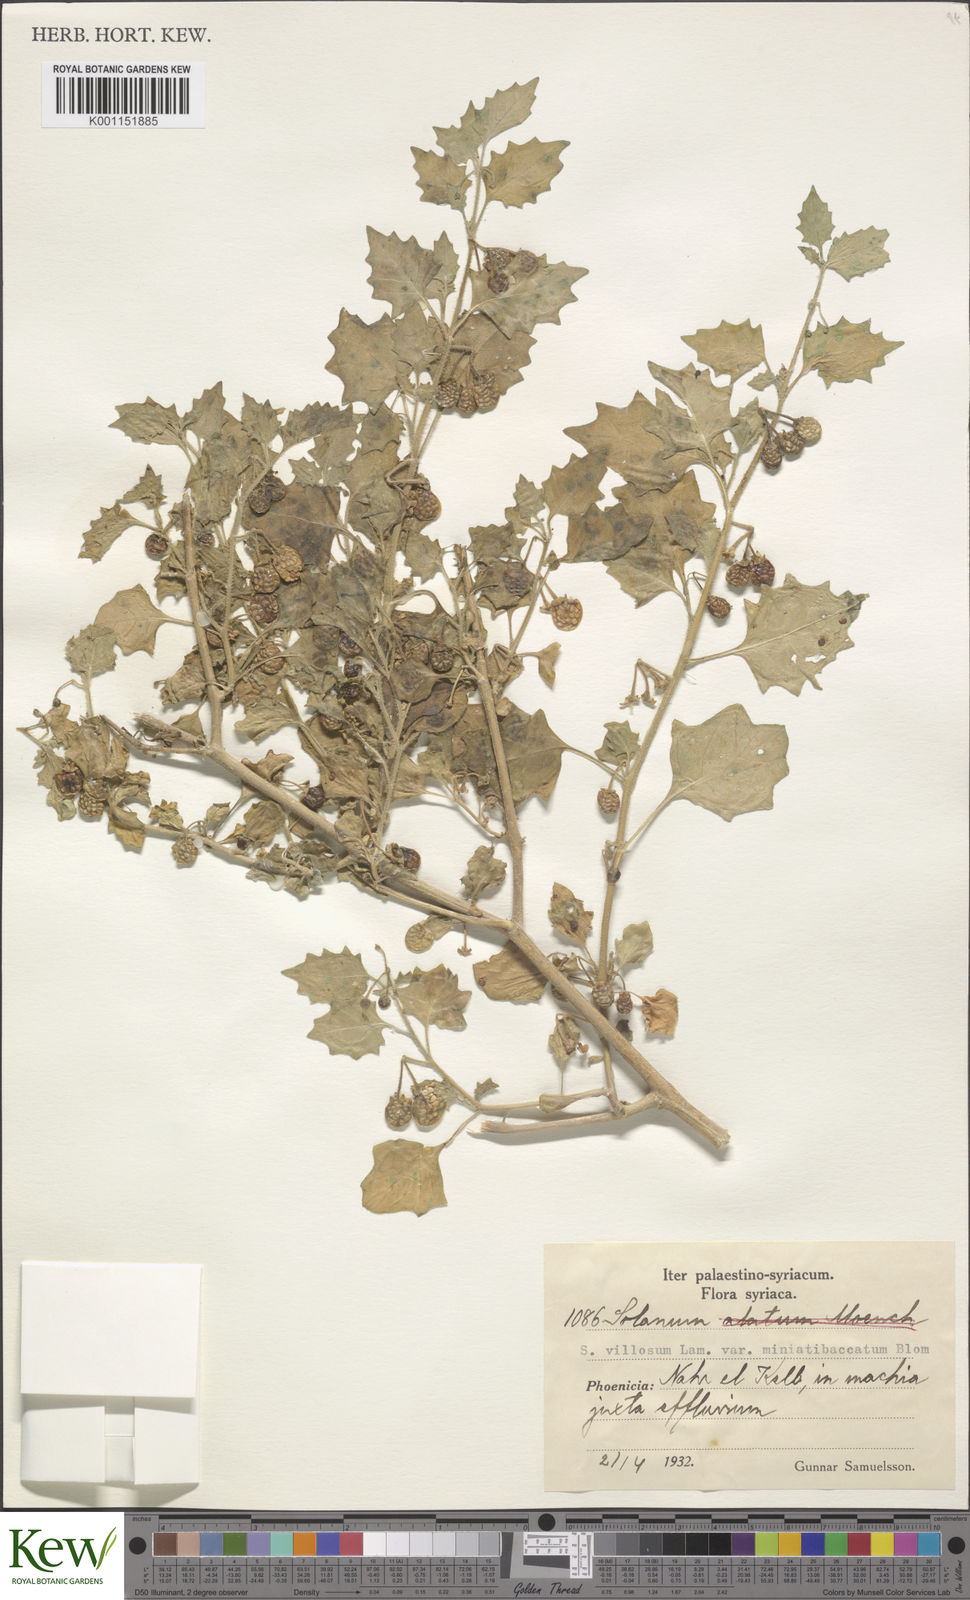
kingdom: Plantae
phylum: Tracheophyta
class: Magnoliopsida
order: Solanales
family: Solanaceae
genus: Solanum
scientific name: Solanum villosum
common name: Red nightshade
